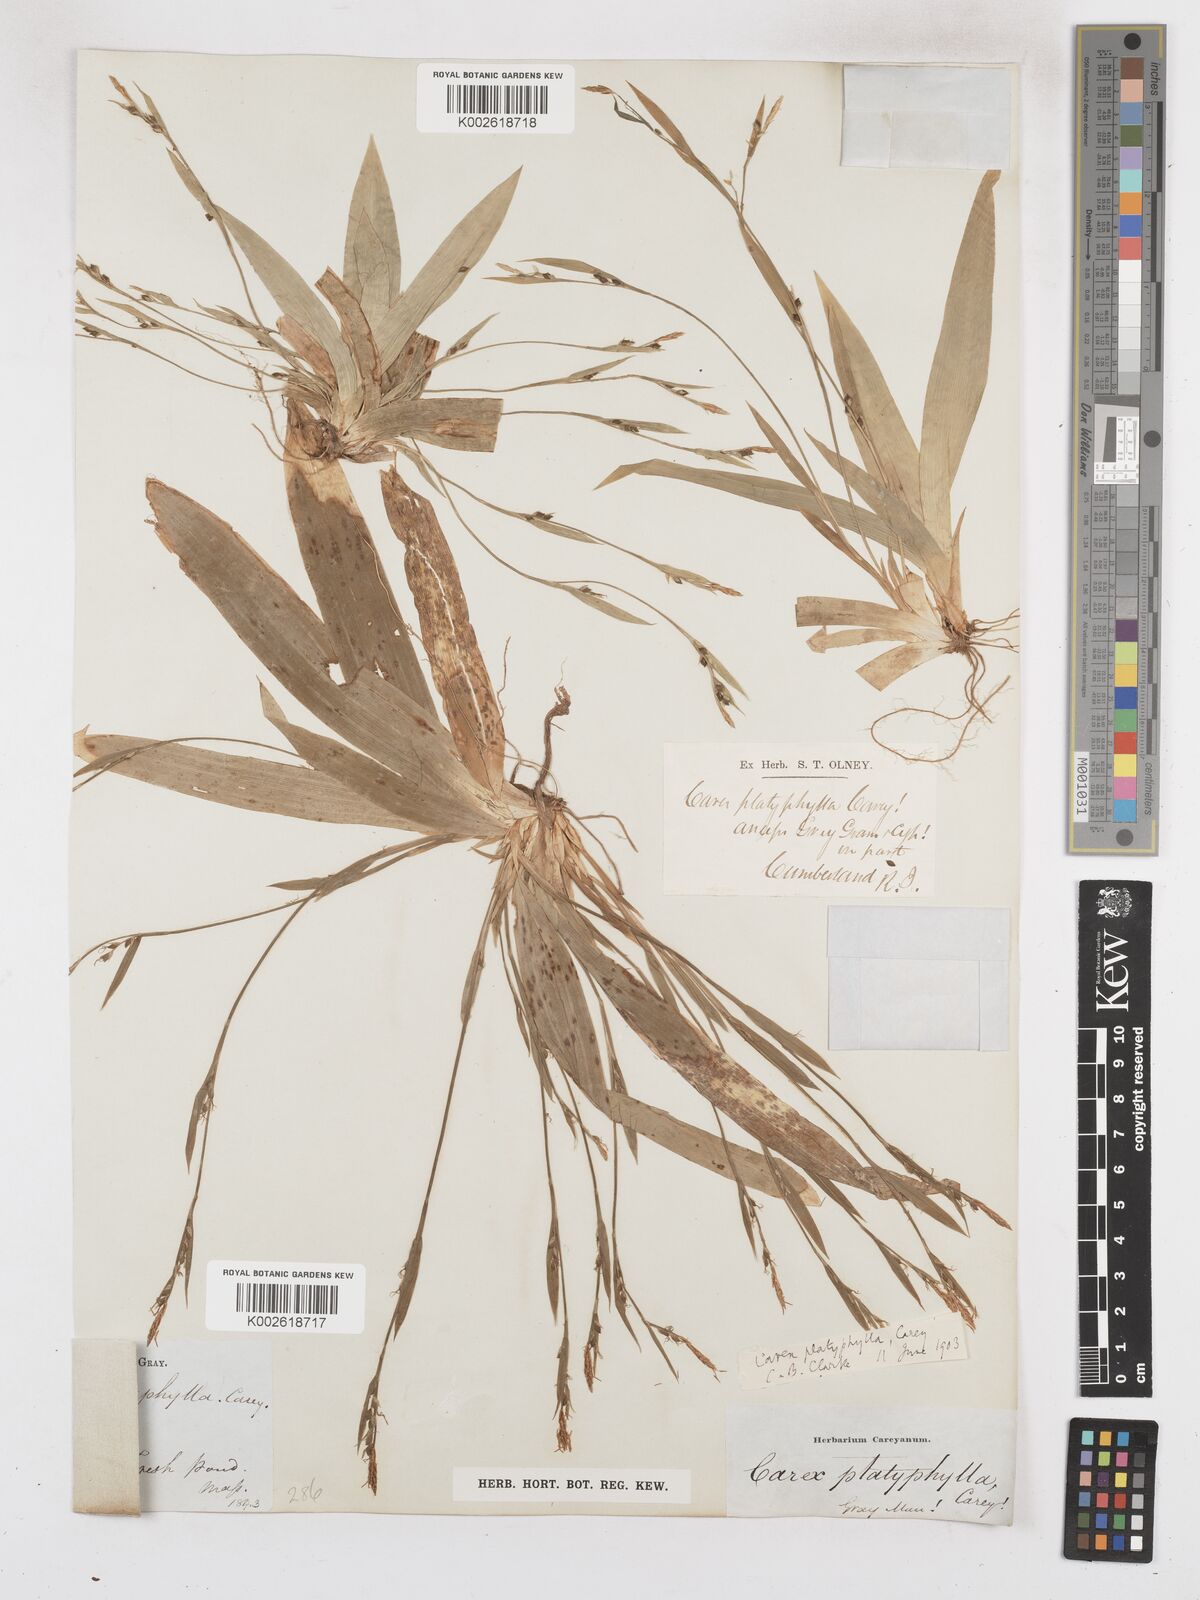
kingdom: Plantae
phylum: Tracheophyta
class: Liliopsida
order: Poales
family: Cyperaceae
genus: Carex
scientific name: Carex platyphylla
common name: Broad-leaved sedge
